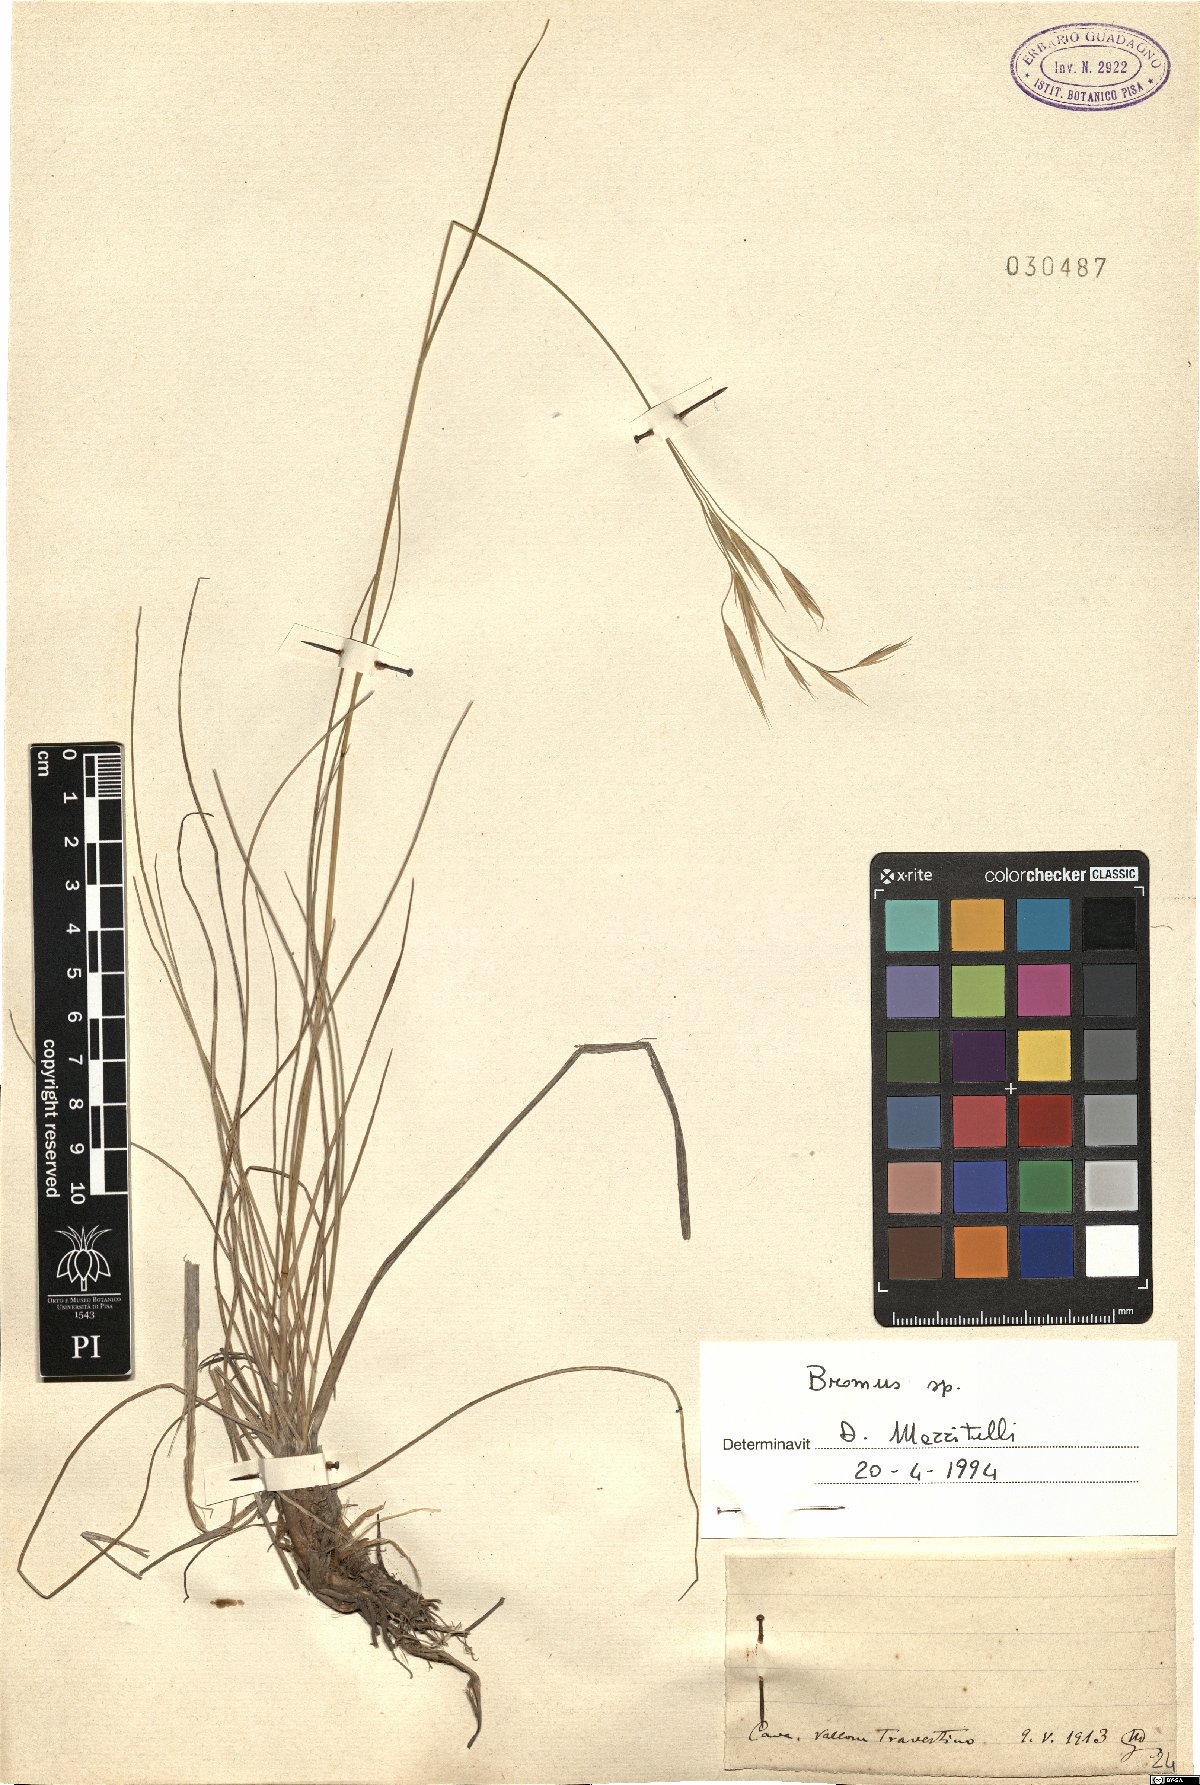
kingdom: Plantae
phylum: Tracheophyta
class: Liliopsida
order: Poales
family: Poaceae
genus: Bromus
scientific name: Bromus
